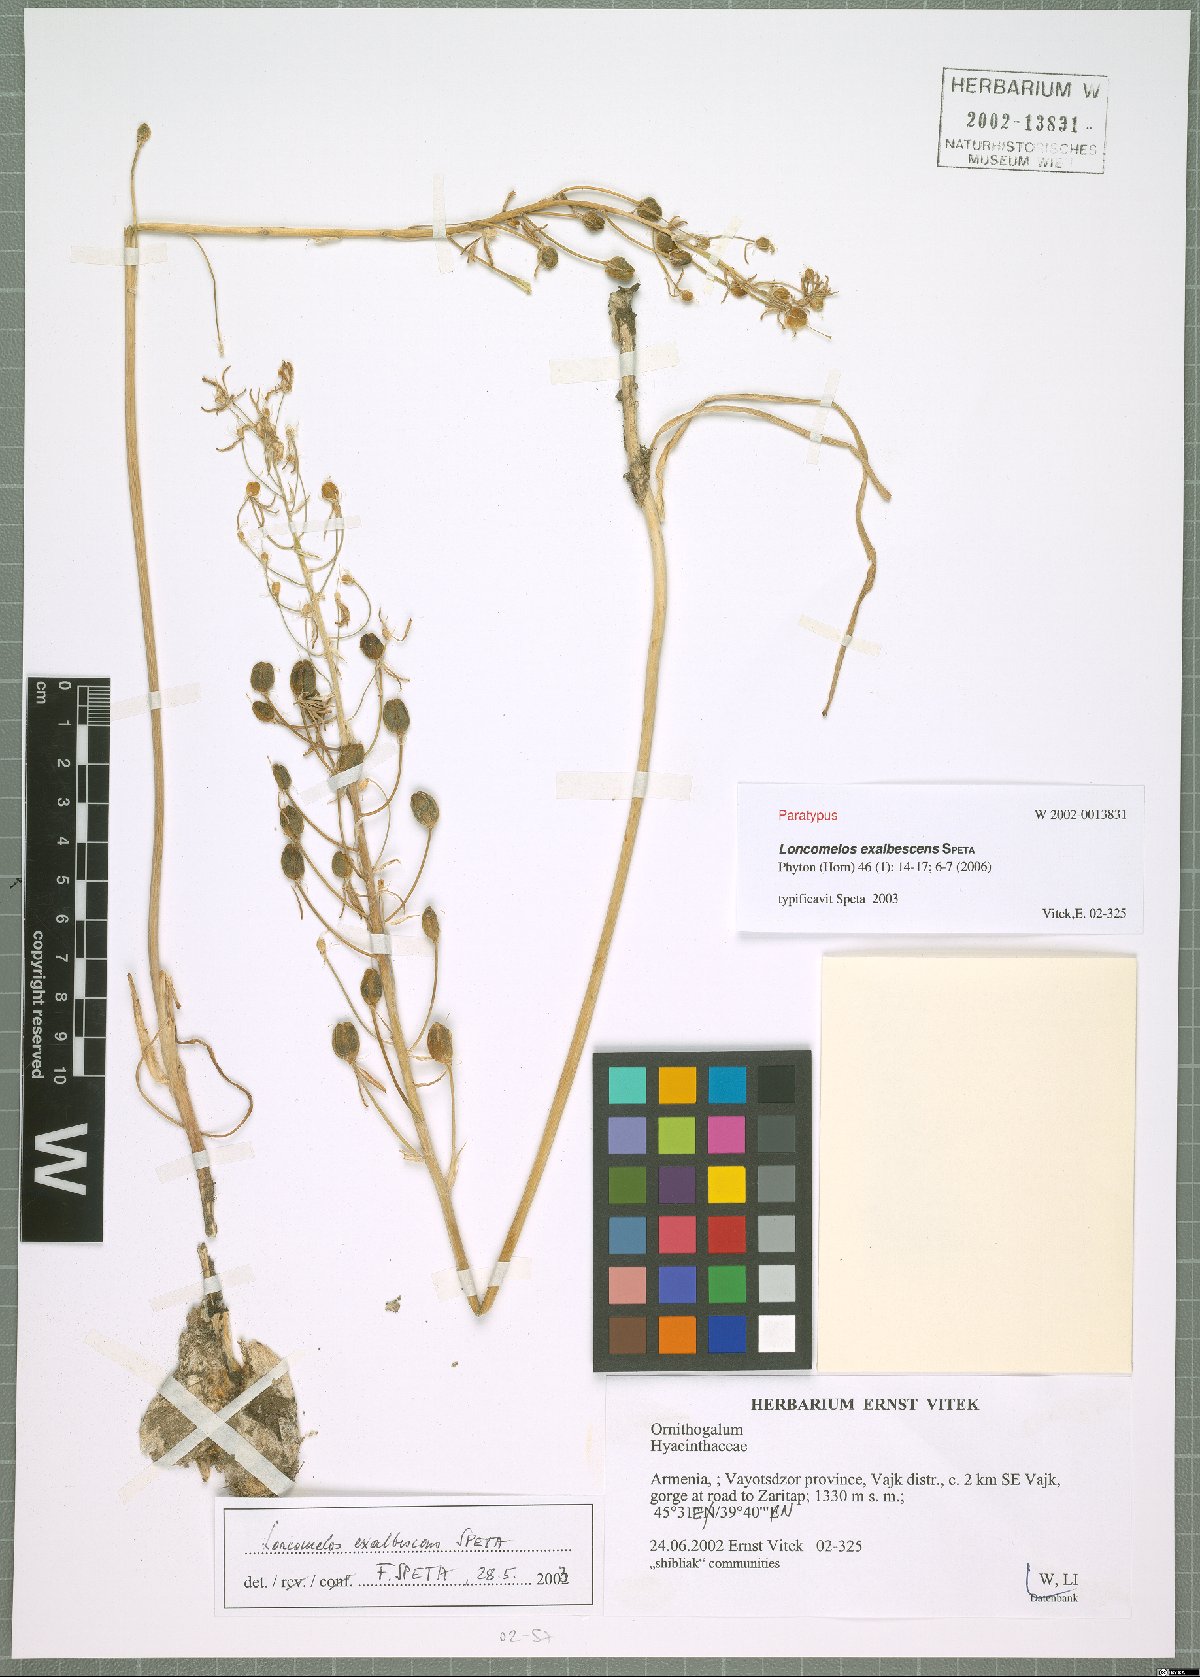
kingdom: Plantae
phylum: Tracheophyta
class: Liliopsida
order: Asparagales
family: Asparagaceae
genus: Ornithogalum
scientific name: Ornithogalum Loncomelos exalbescens
